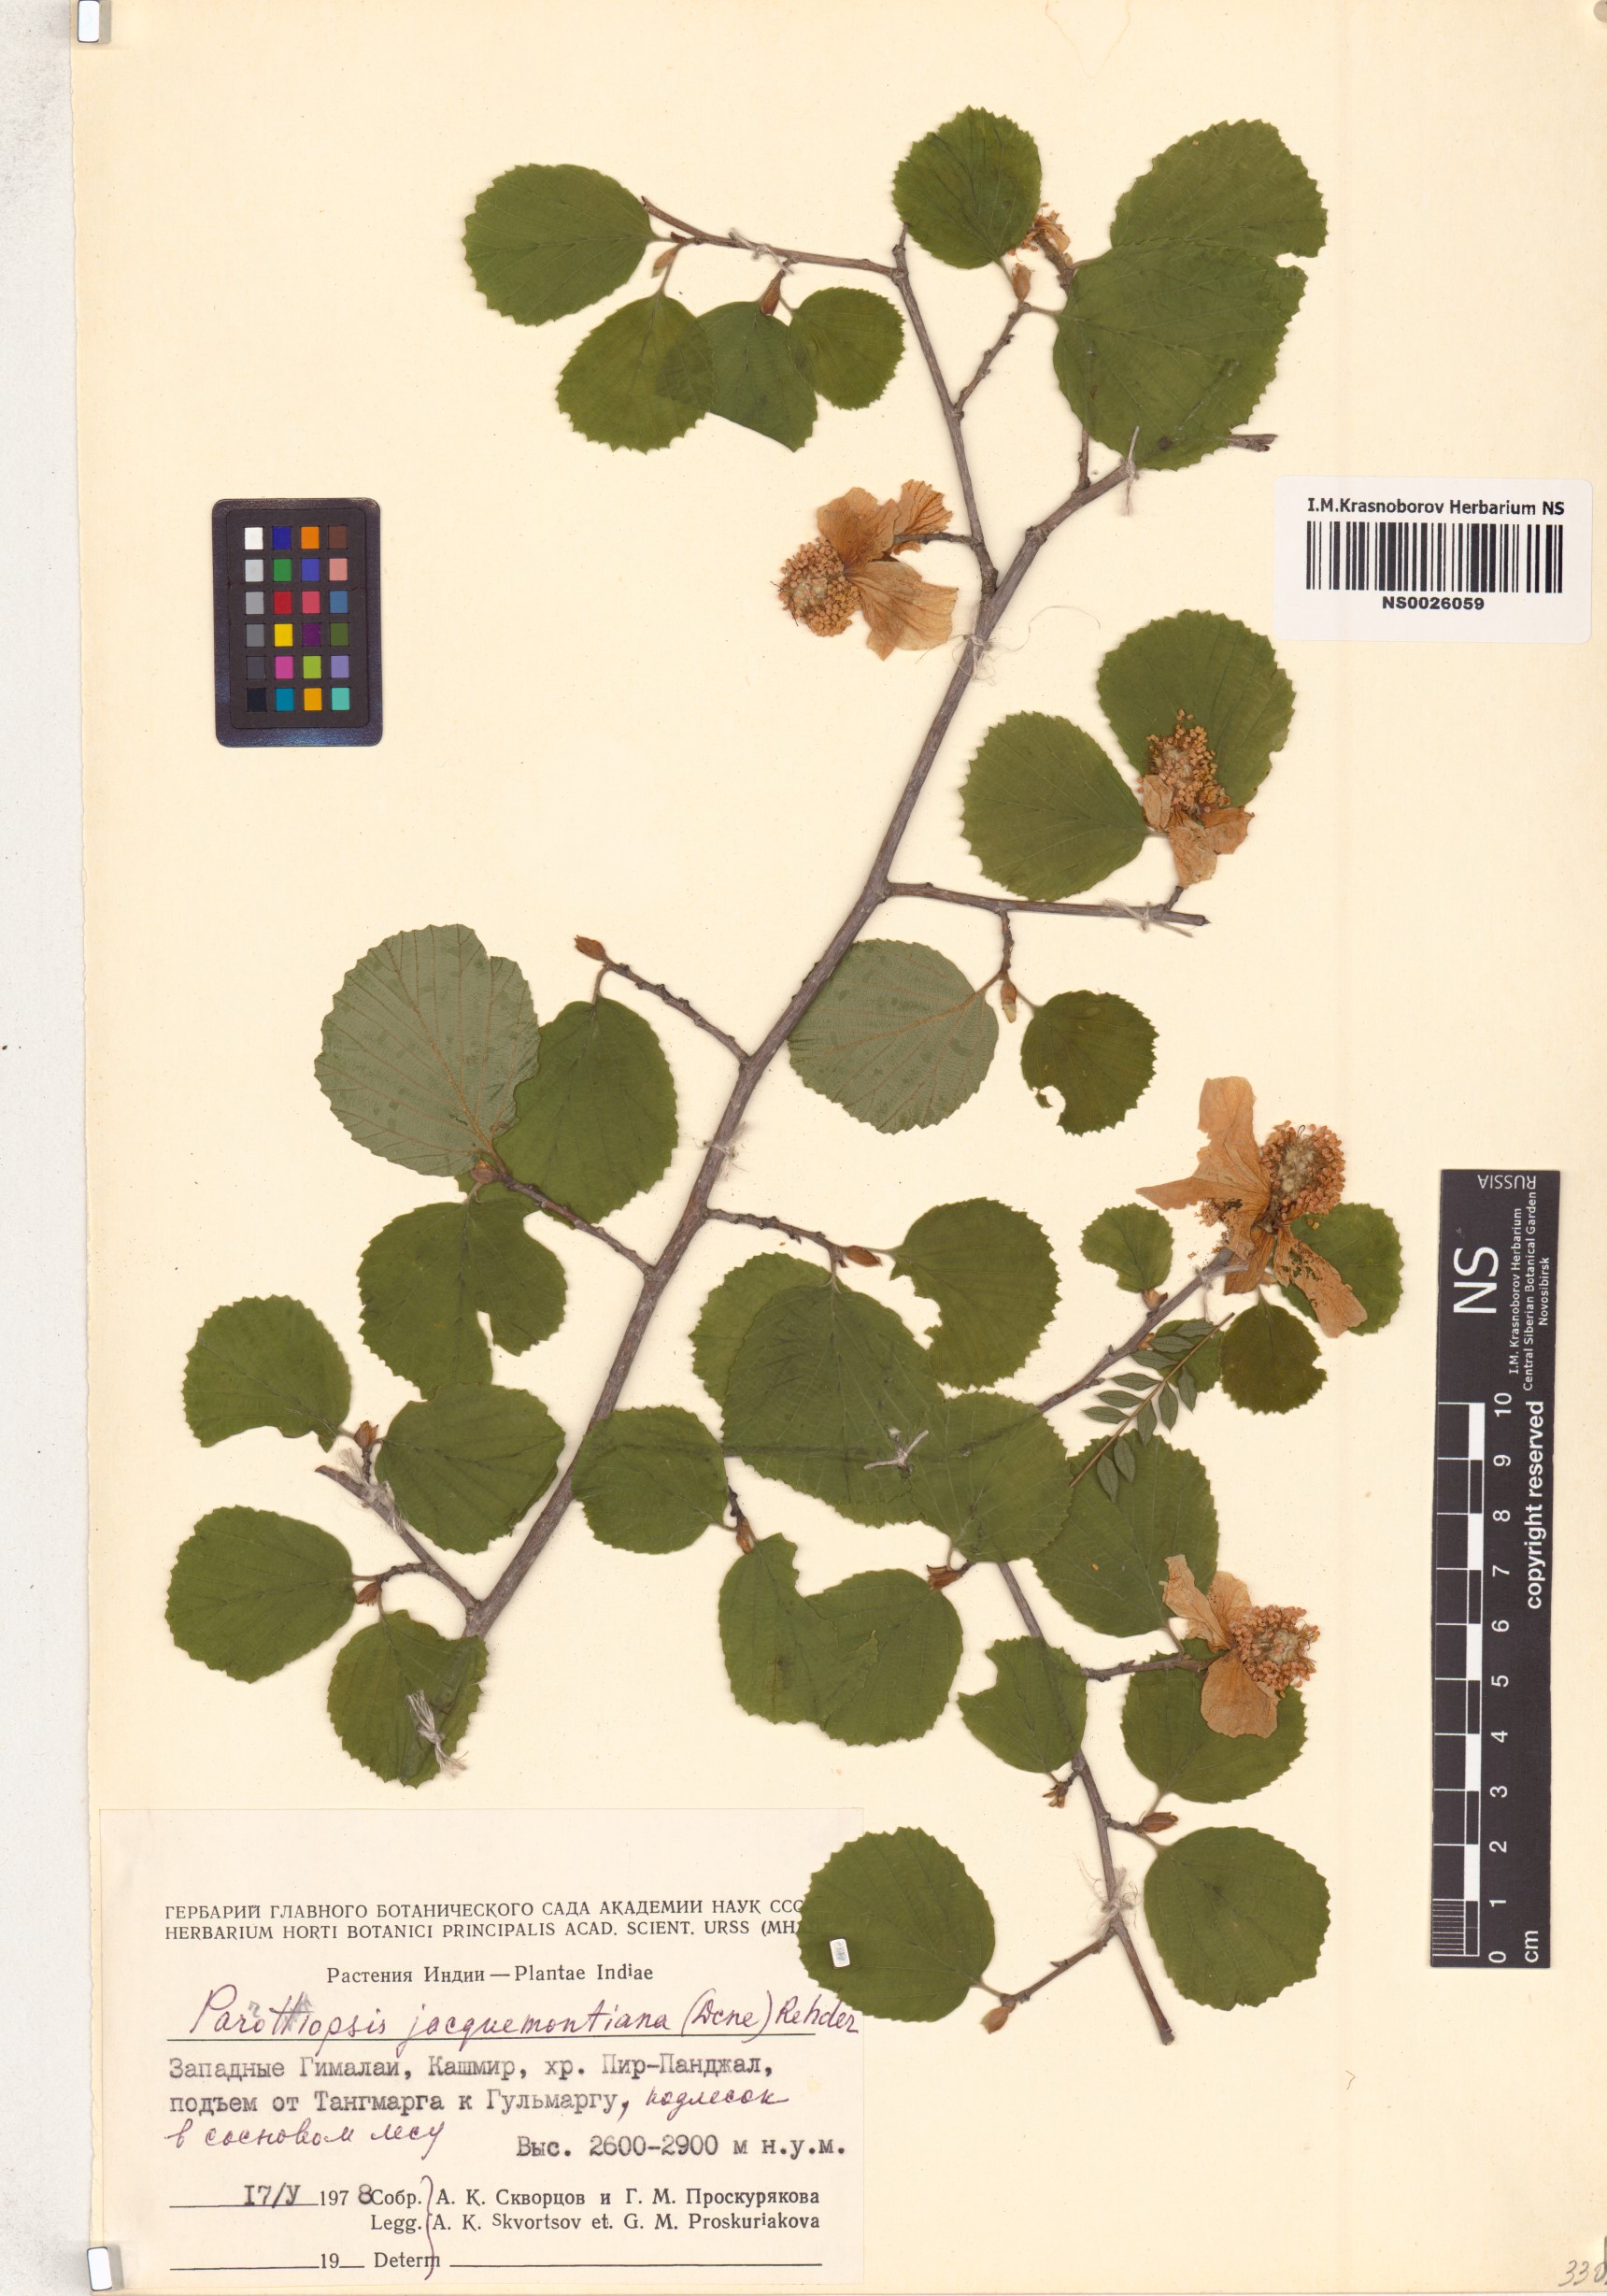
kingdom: Plantae
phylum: Tracheophyta
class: Magnoliopsida
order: Saxifragales
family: Hamamelidaceae
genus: Parrotiopsis
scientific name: Parrotiopsis jacquemontiana
